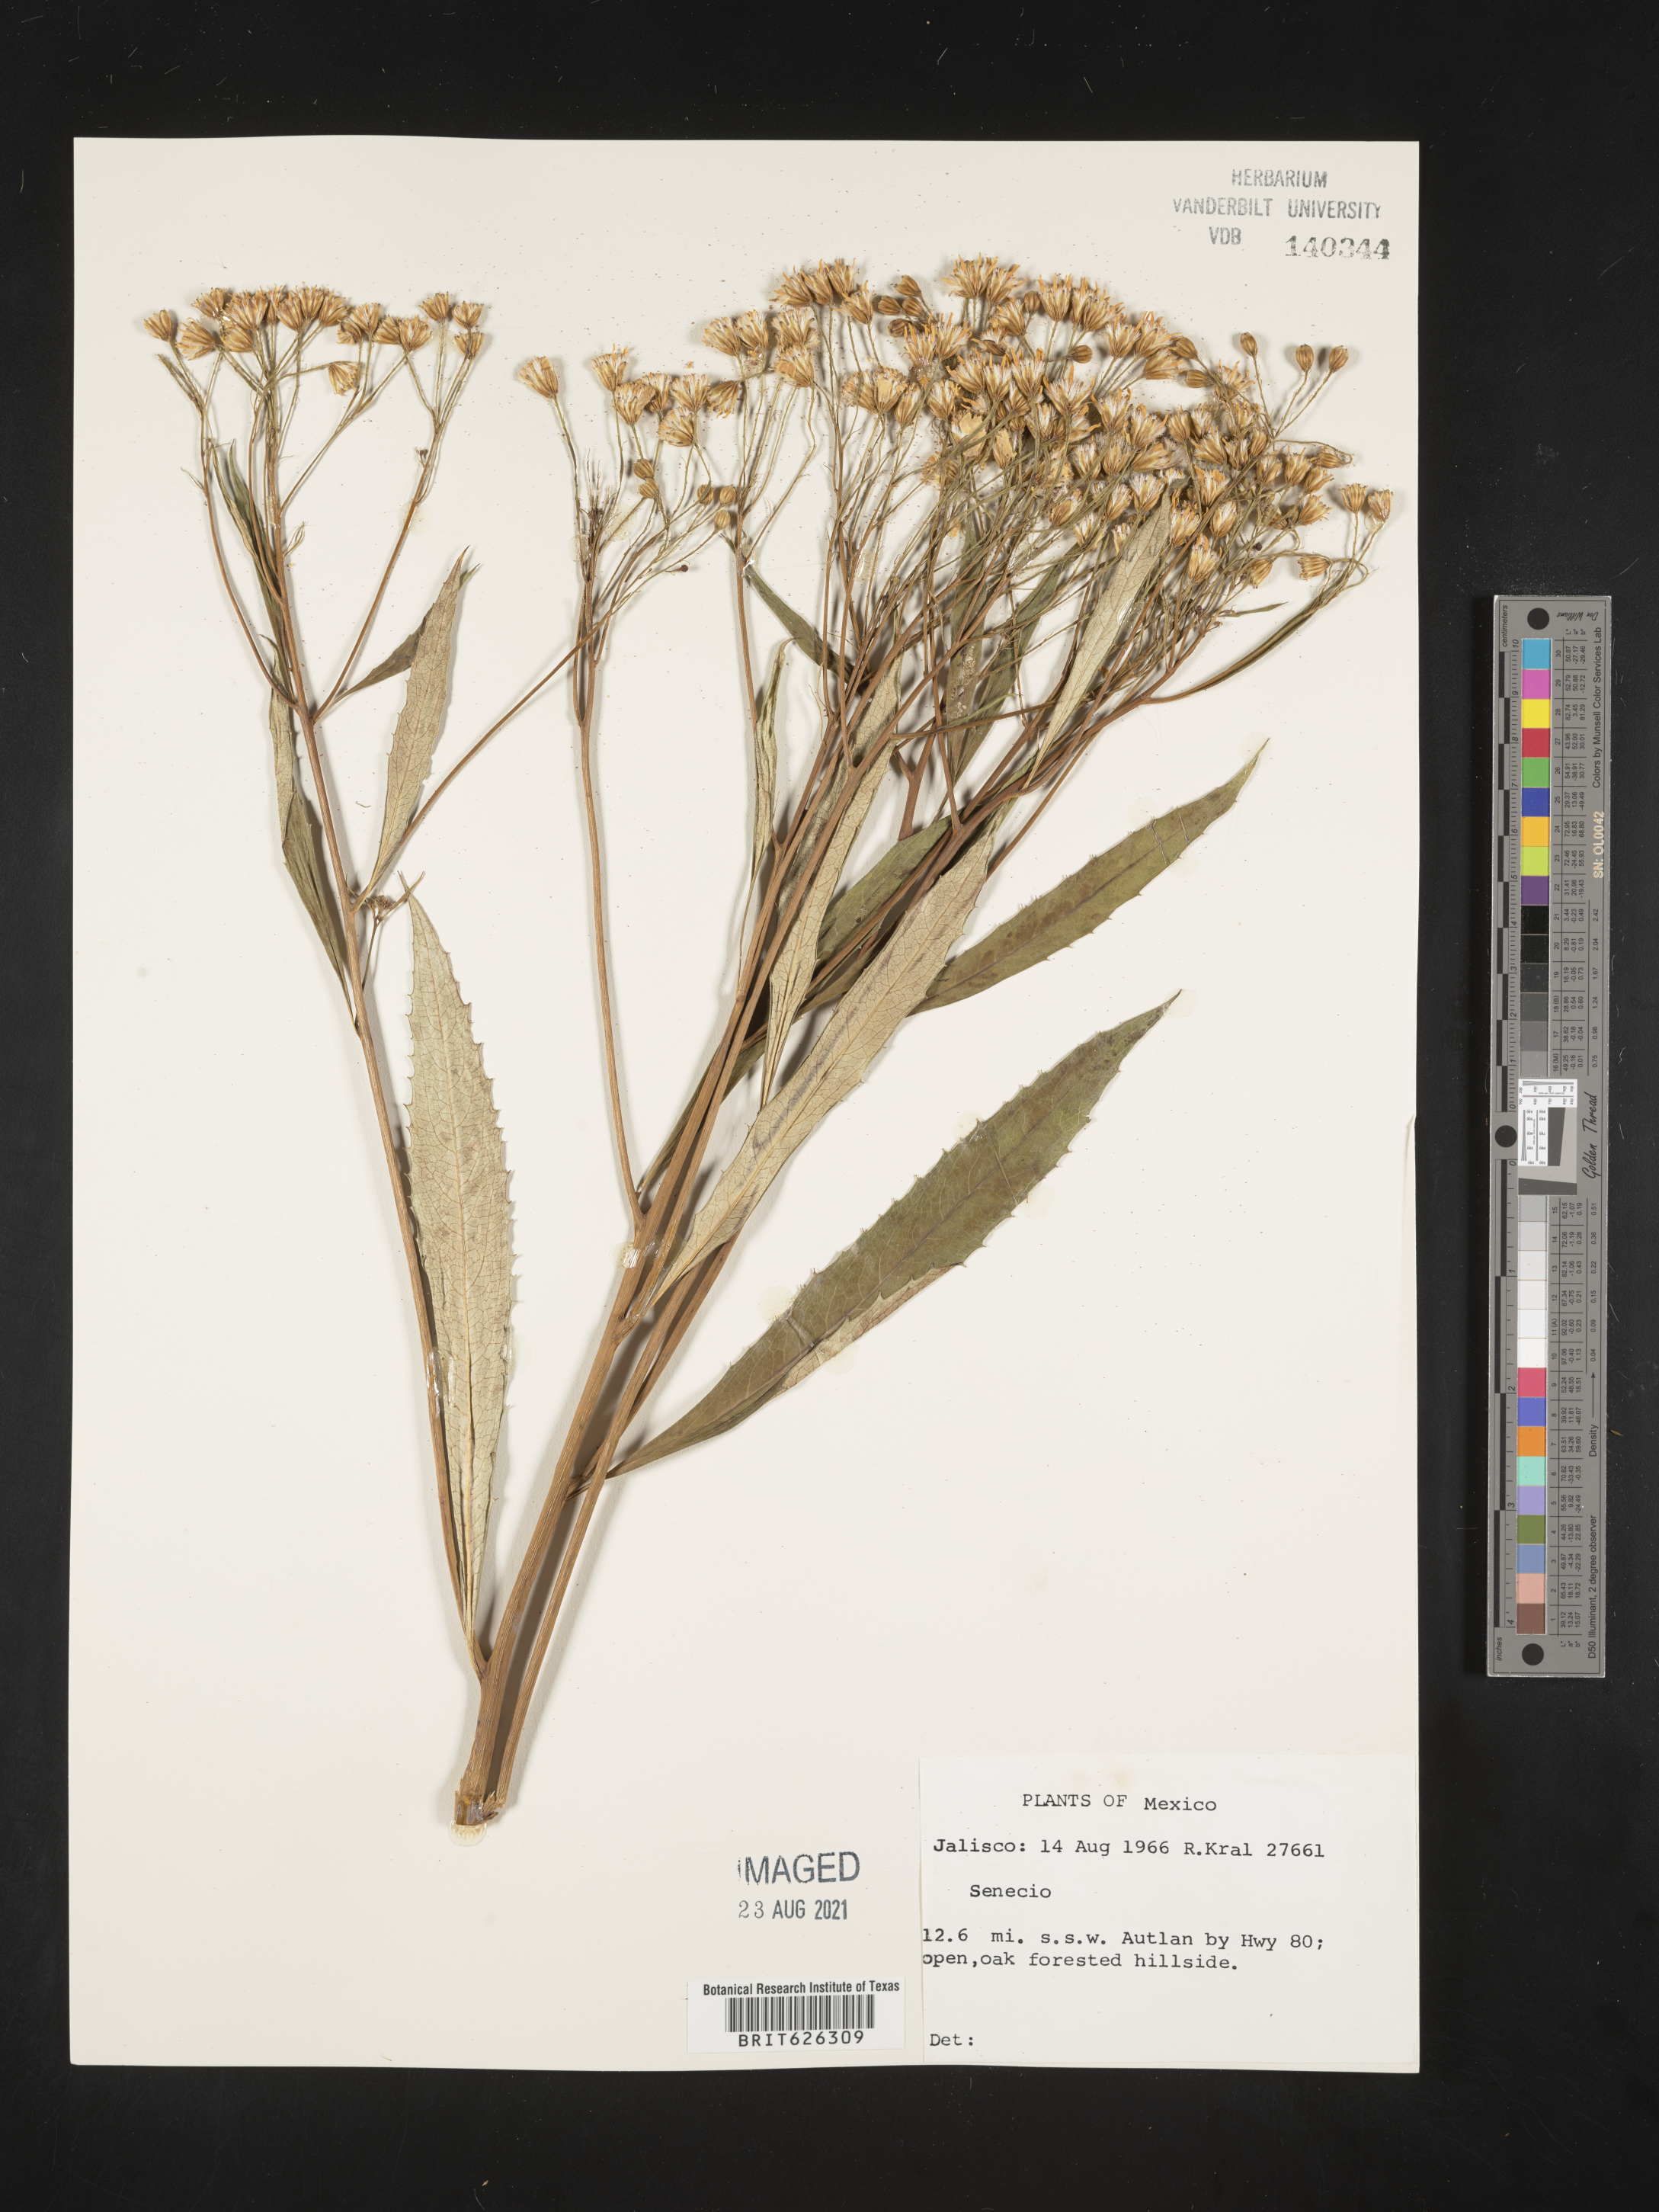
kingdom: Plantae
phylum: Tracheophyta
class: Magnoliopsida
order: Asterales
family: Asteraceae
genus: Senecio
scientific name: Senecio
